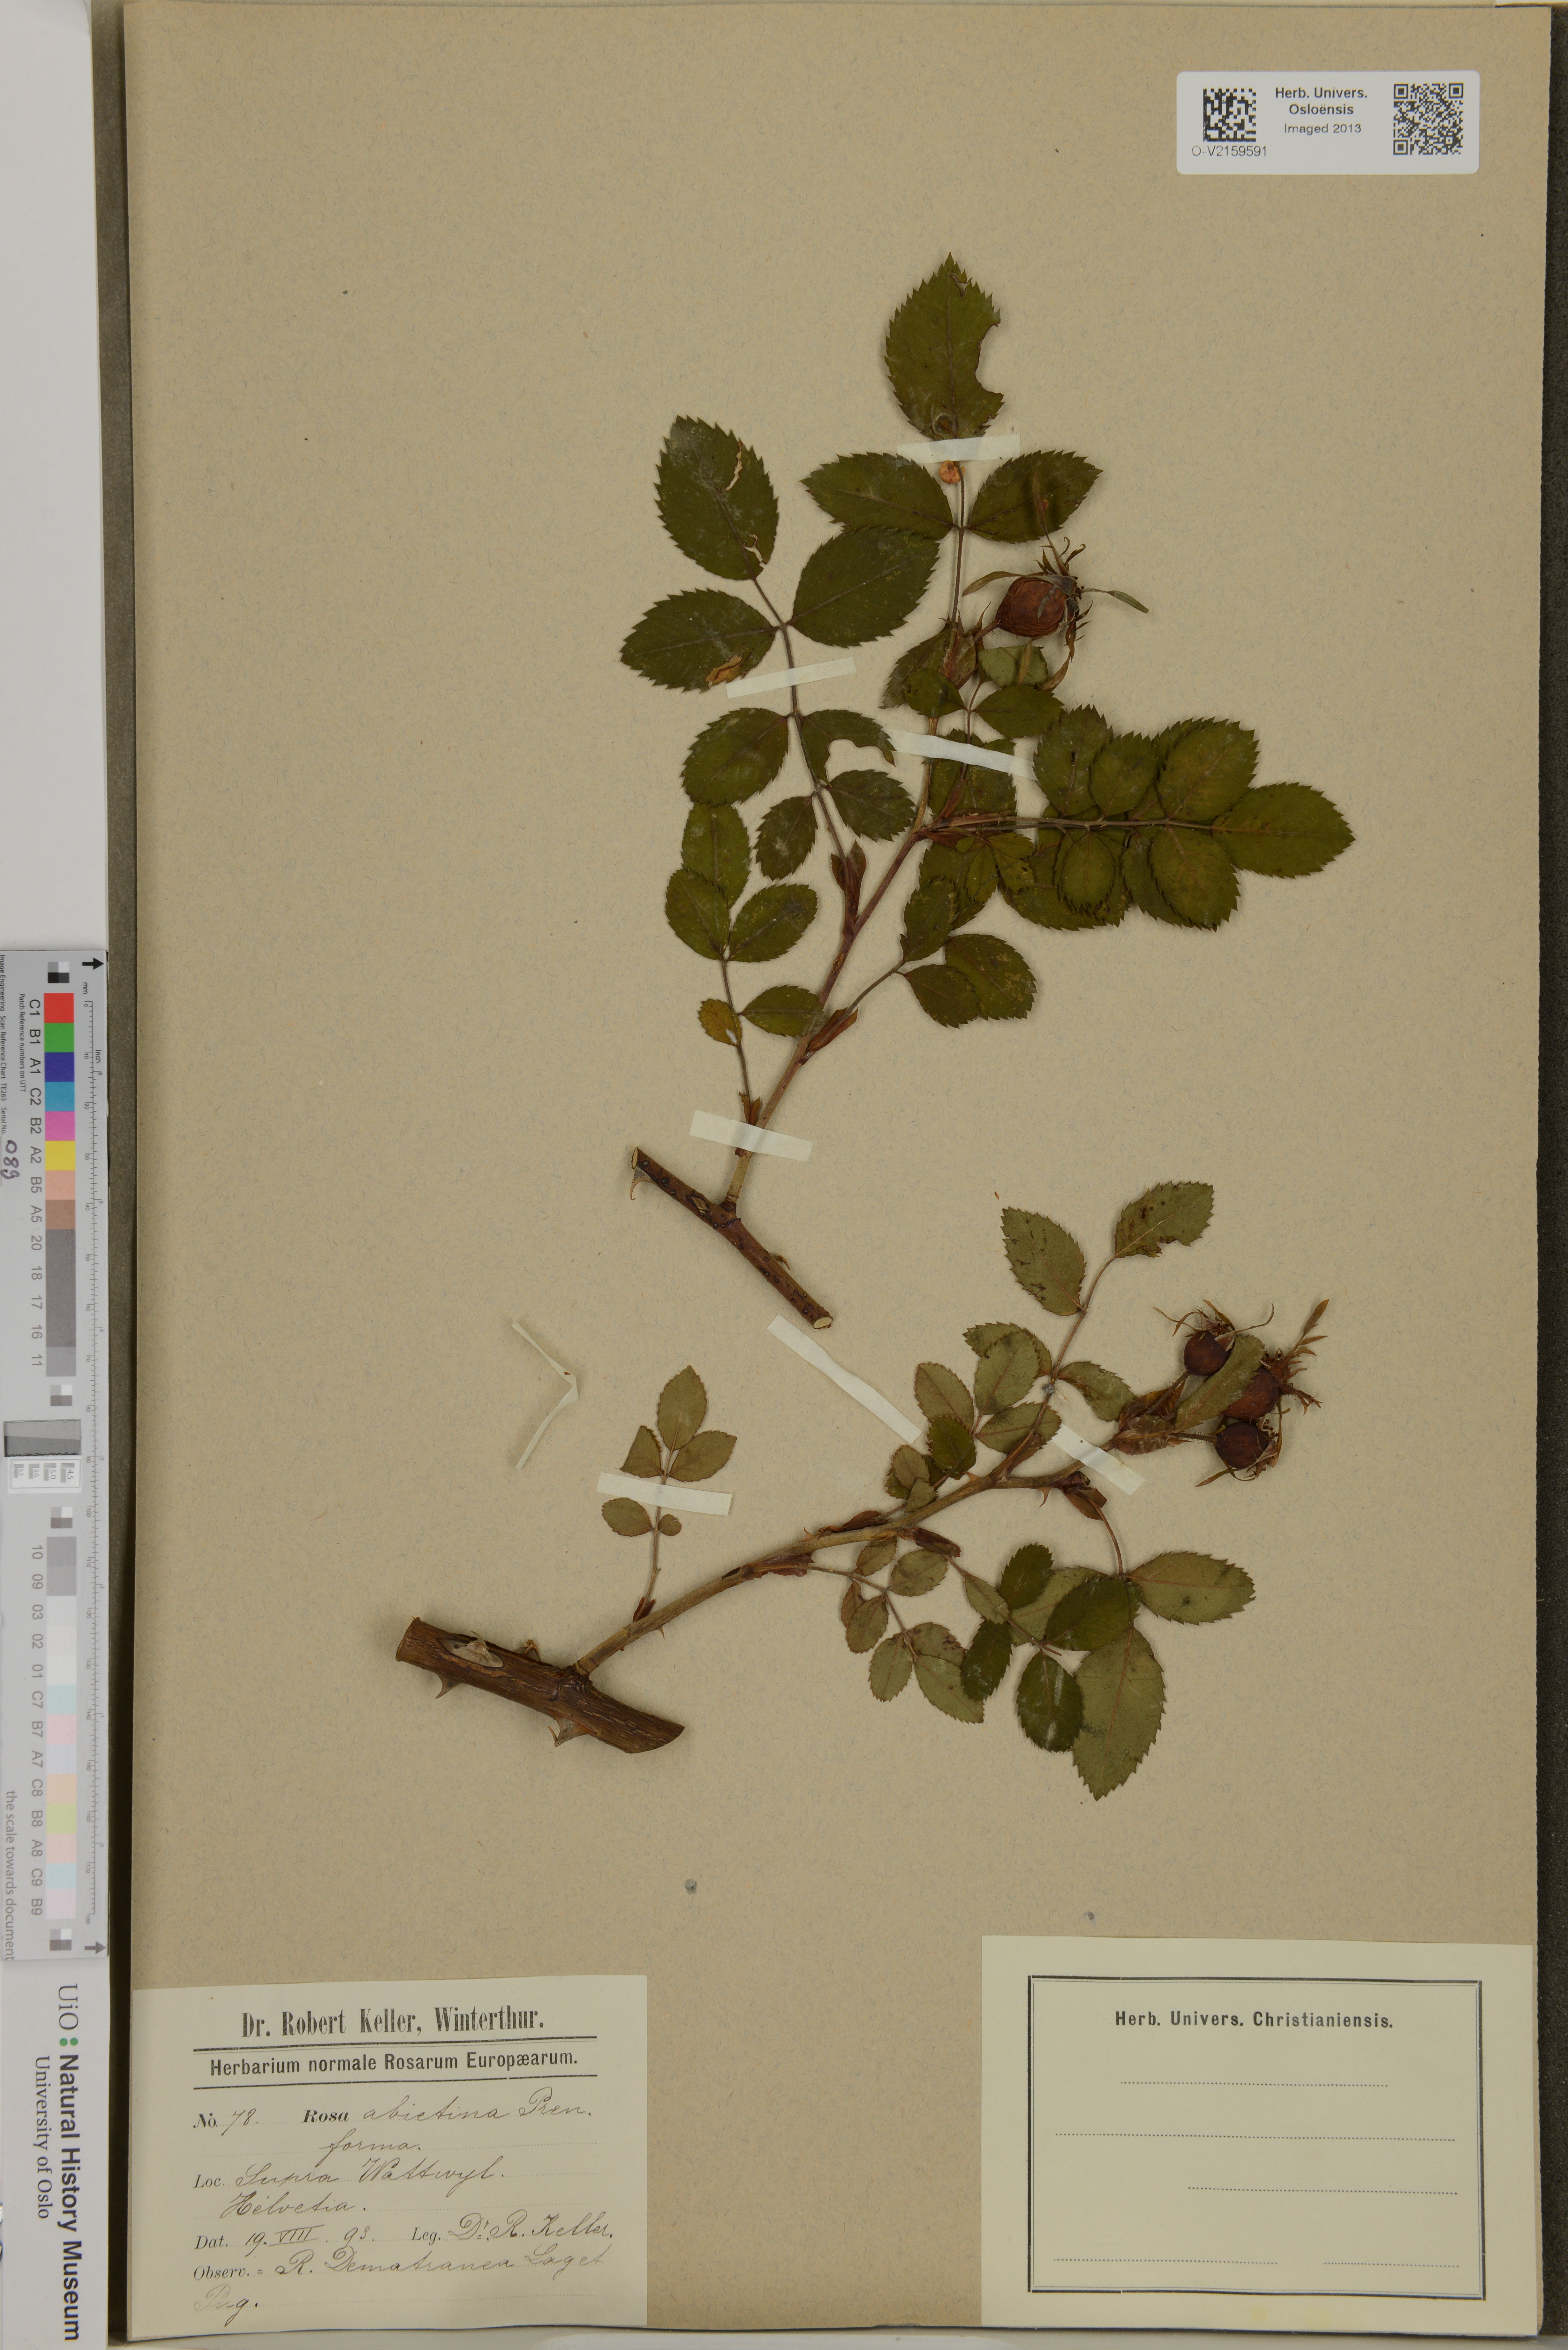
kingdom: Plantae
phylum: Tracheophyta
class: Magnoliopsida
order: Rosales
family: Rosaceae
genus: Rosa
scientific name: Rosa abietina
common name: Needle rose
